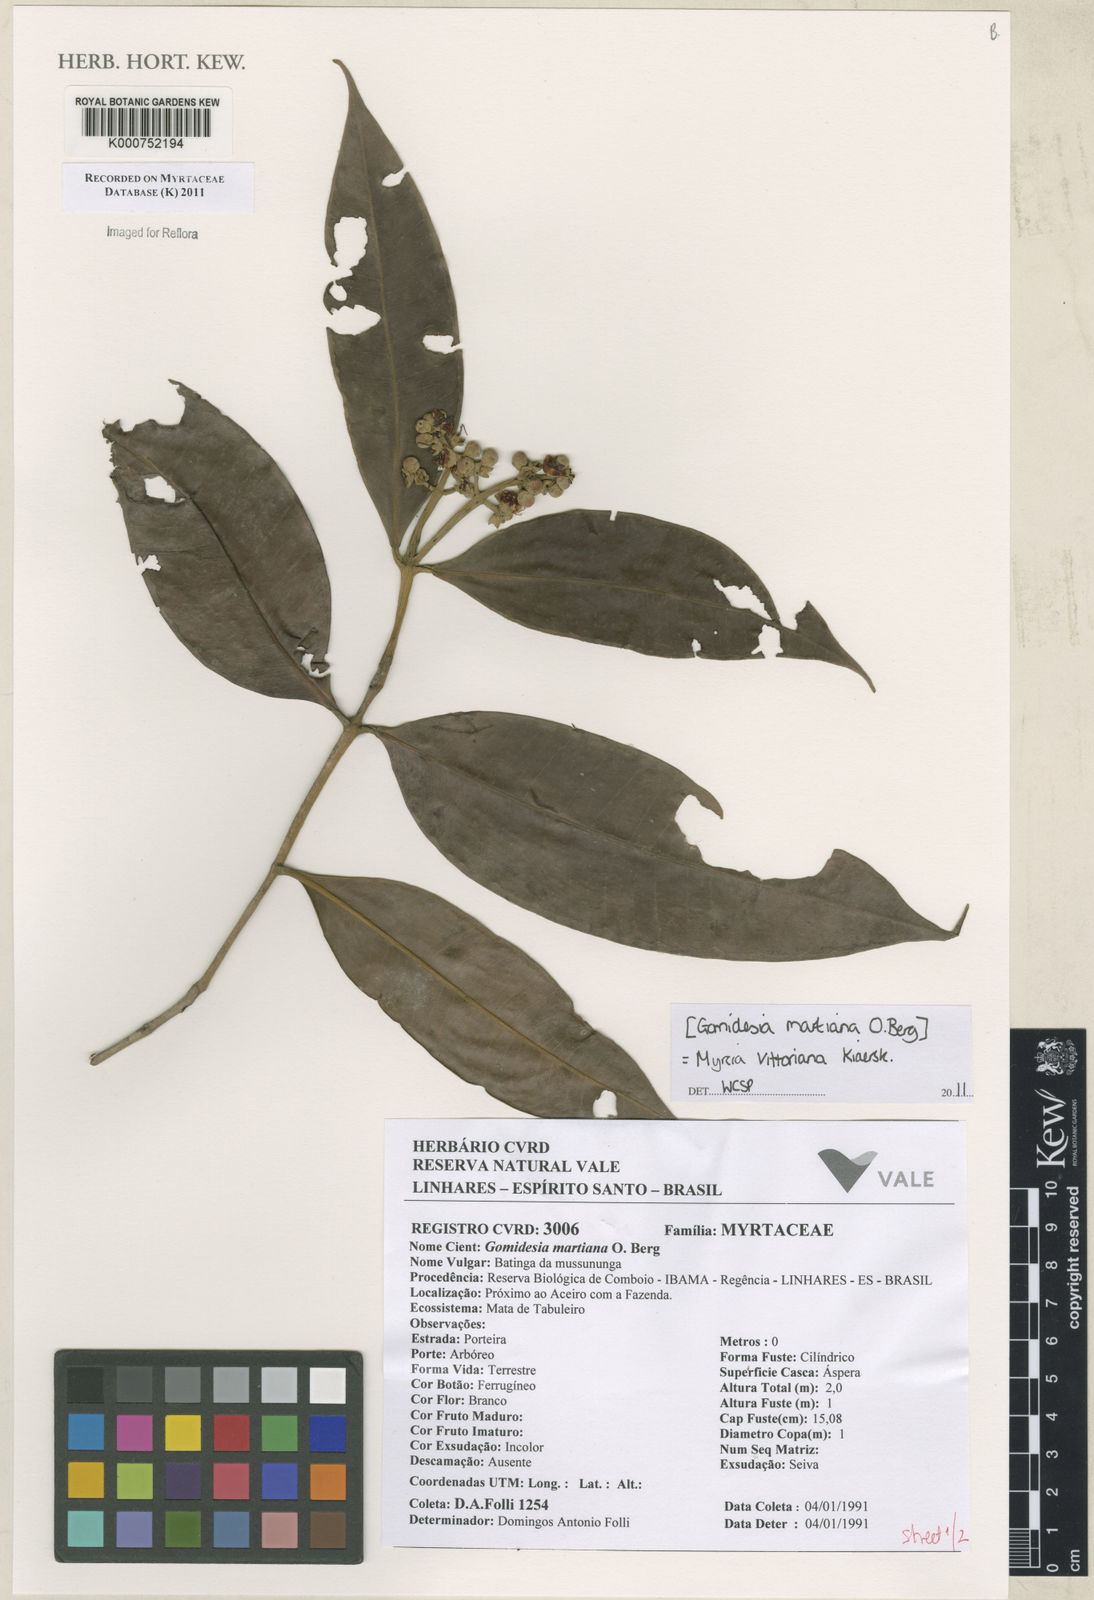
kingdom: Plantae
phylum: Tracheophyta
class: Magnoliopsida
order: Myrtales
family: Myrtaceae
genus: Myrcia
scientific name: Myrcia vittoriana
